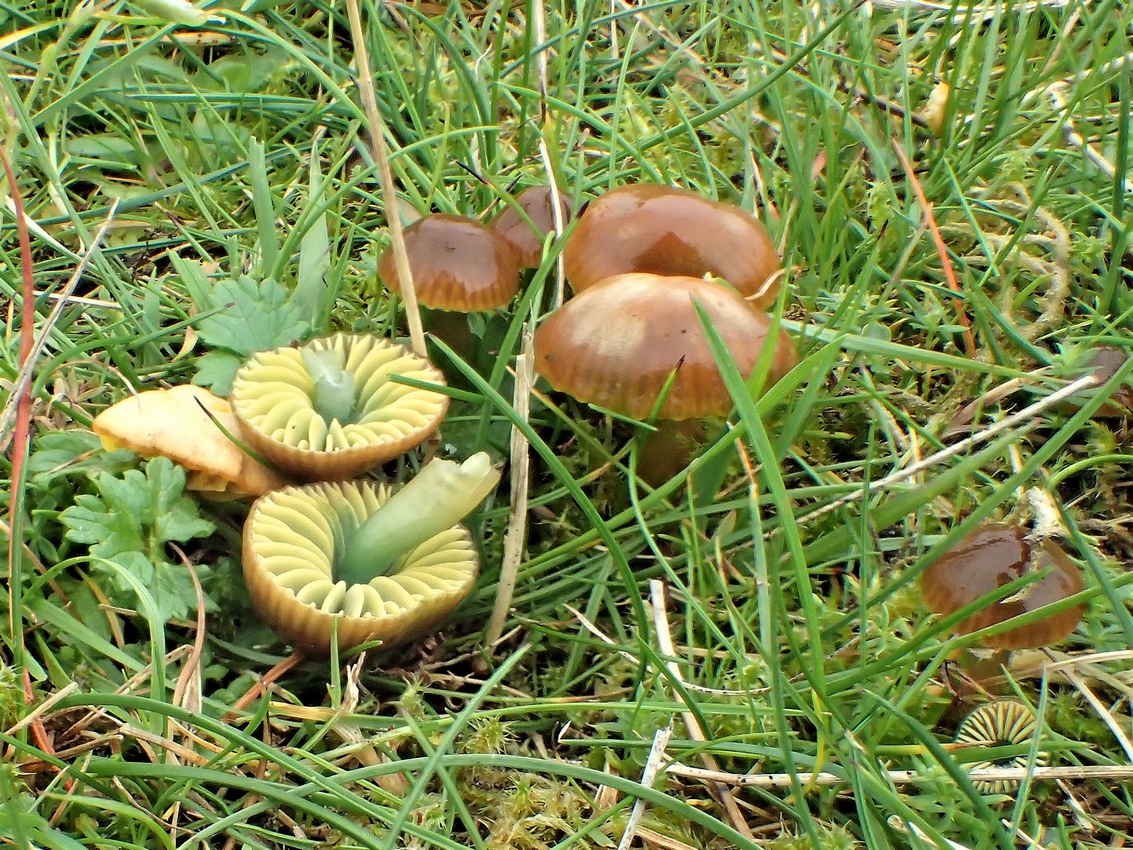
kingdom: Fungi
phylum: Basidiomycota
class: Agaricomycetes
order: Agaricales
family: Hygrophoraceae
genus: Gliophorus
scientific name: Gliophorus psittacinus
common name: papegøje-vokshat
